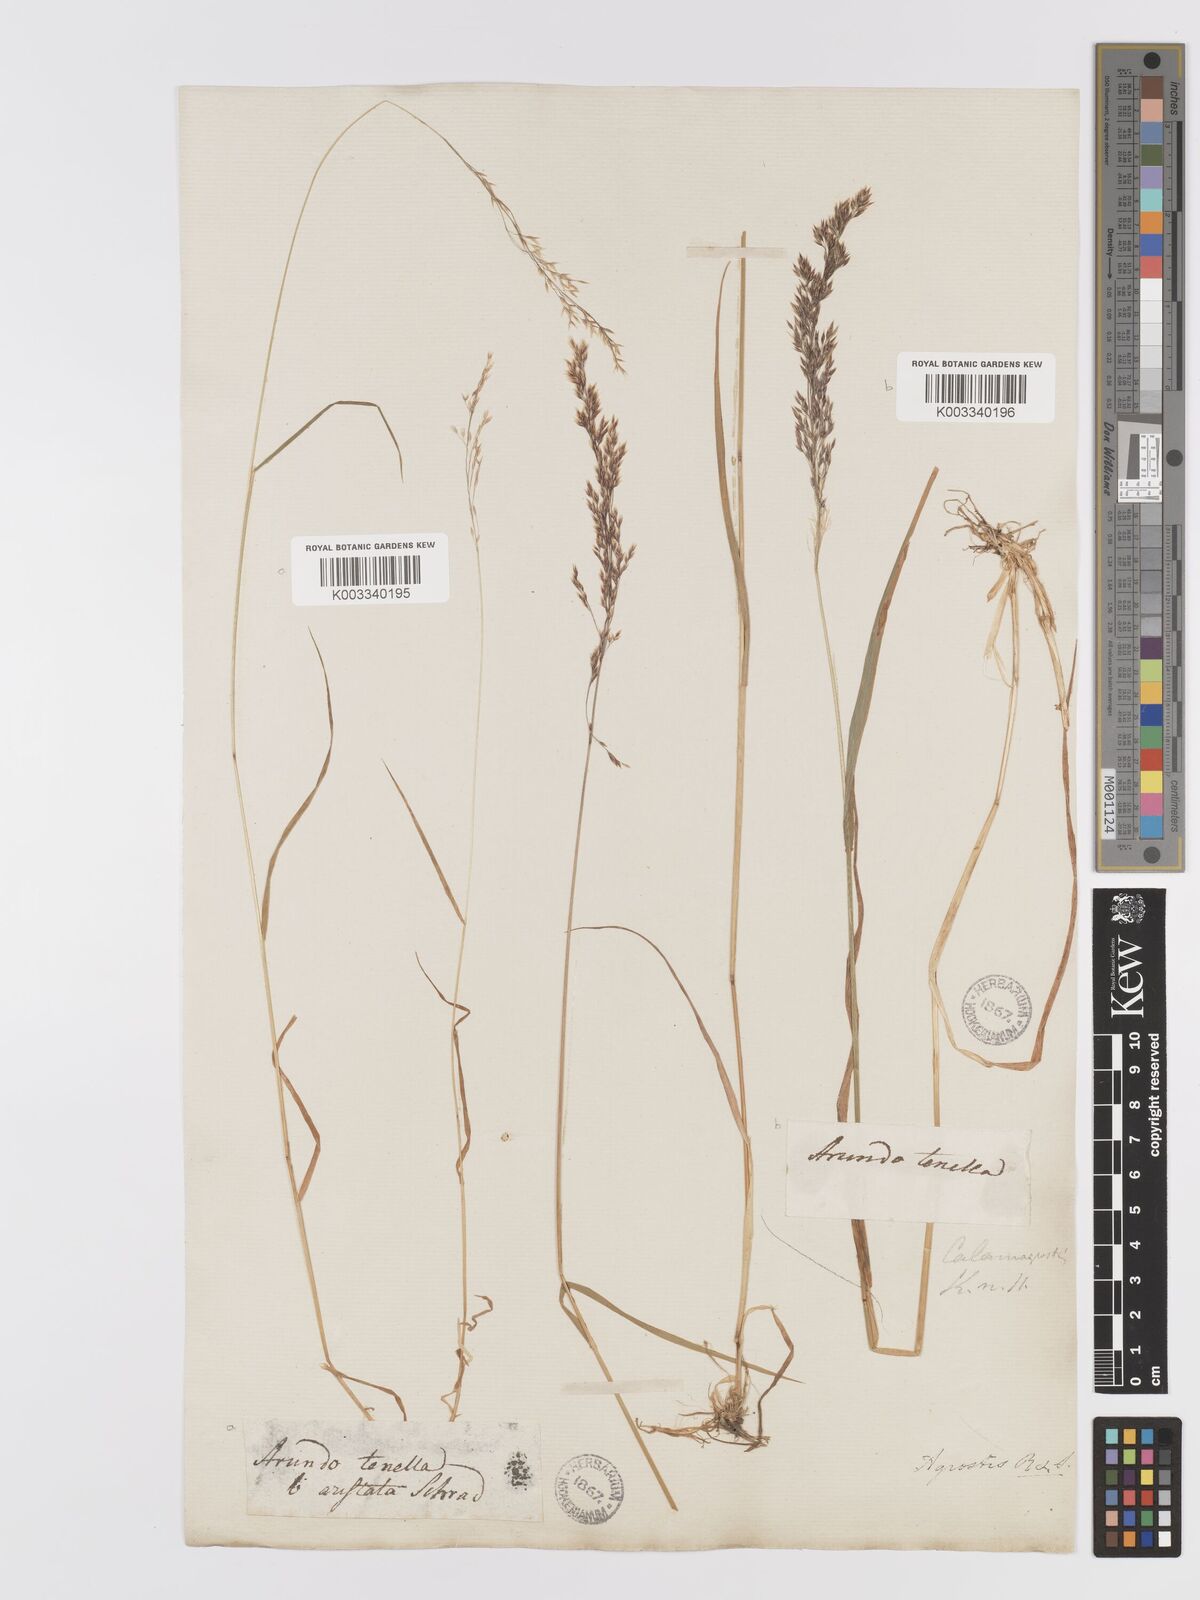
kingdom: Plantae
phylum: Tracheophyta
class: Liliopsida
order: Poales
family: Poaceae
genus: Agrostis
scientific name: Agrostis schraderiana
